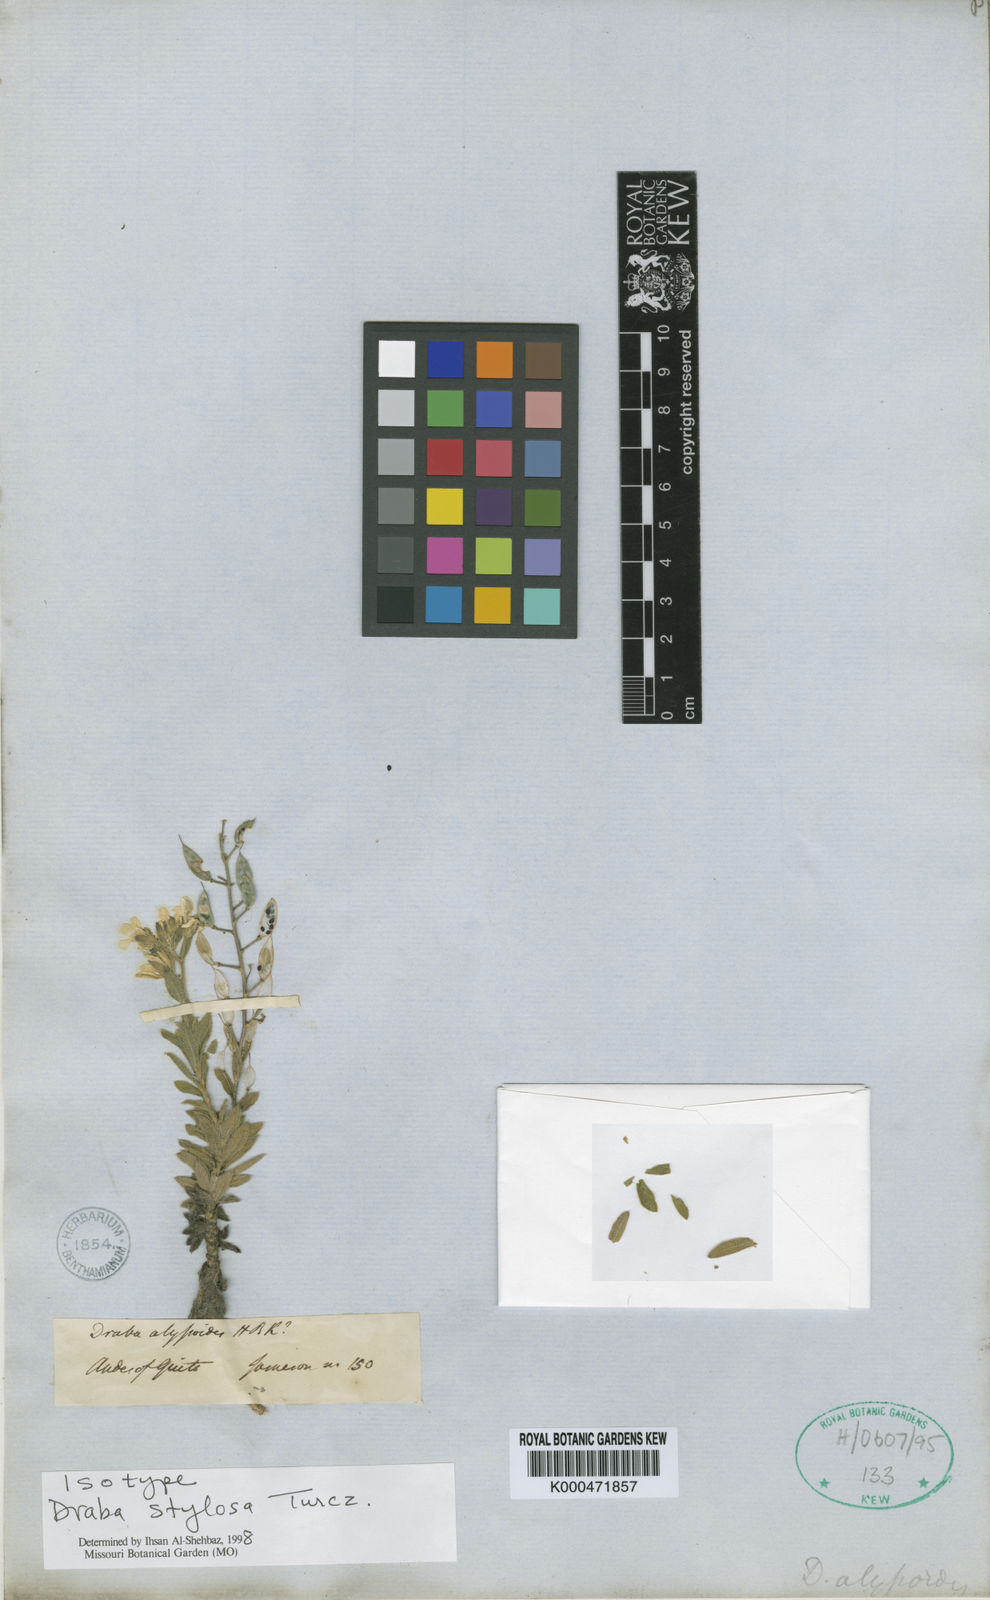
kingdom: Plantae
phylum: Tracheophyta
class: Magnoliopsida
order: Brassicales
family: Brassicaceae
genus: Draba
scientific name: Draba stylosa
